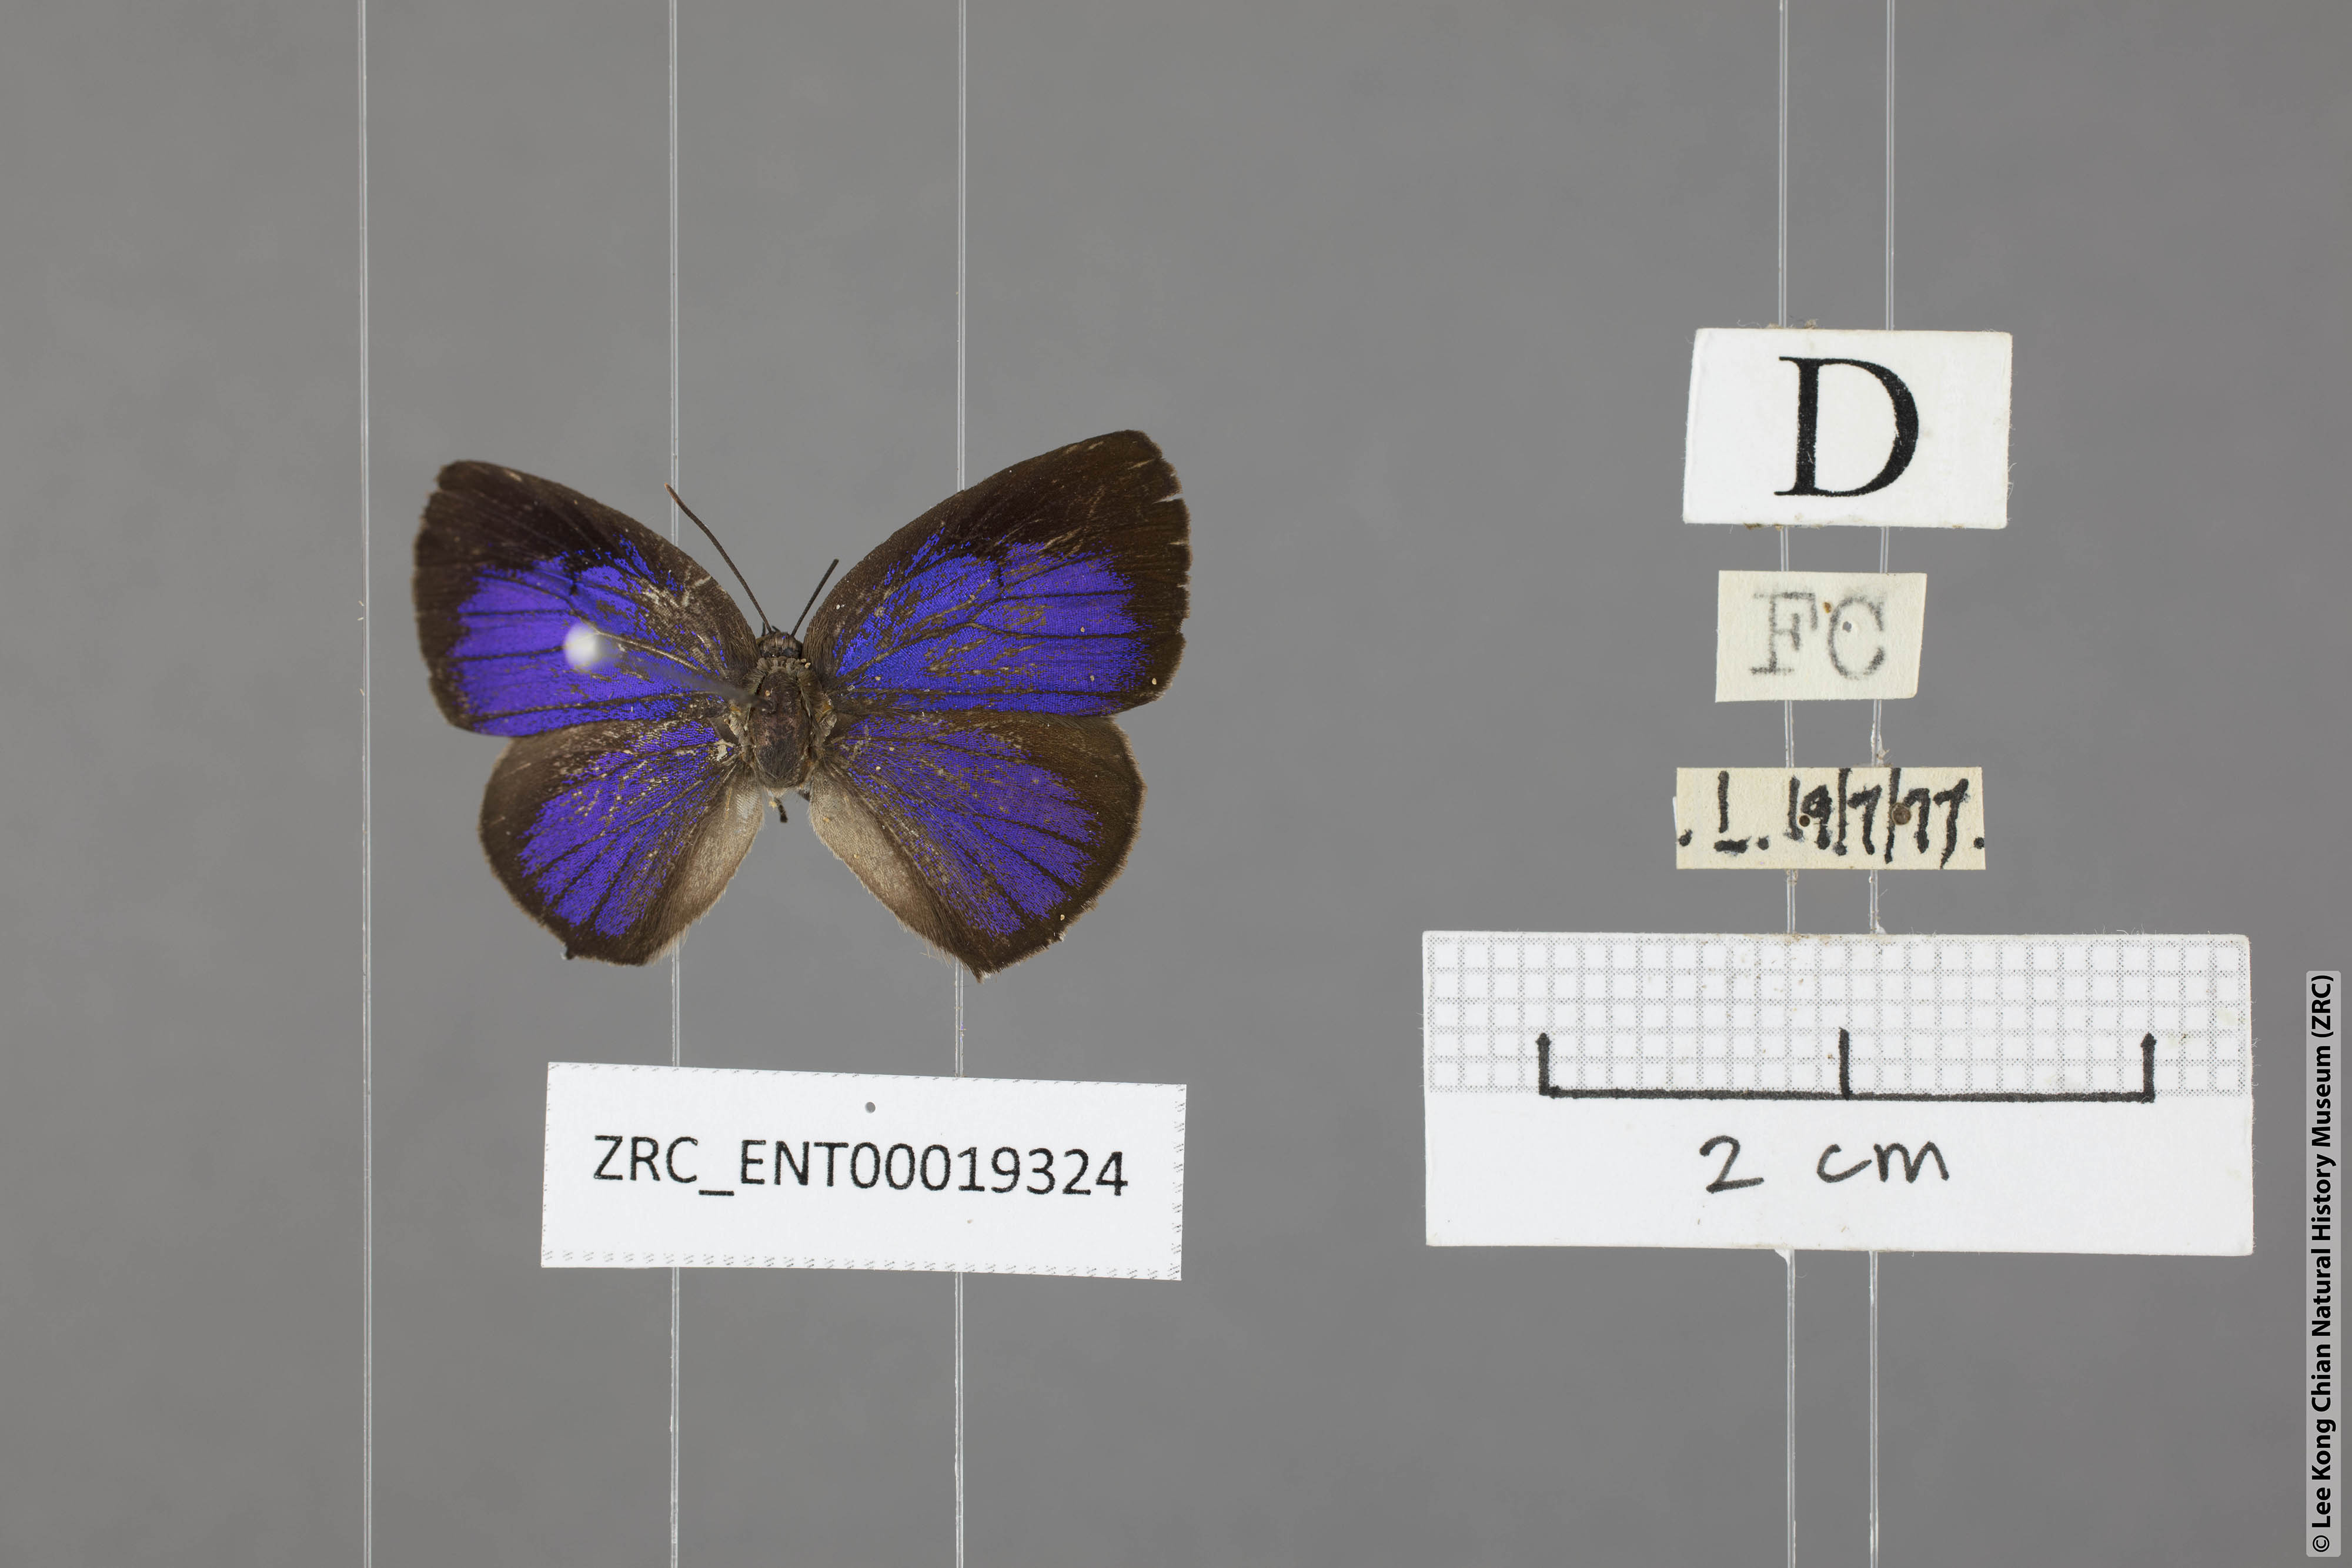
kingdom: Animalia
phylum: Arthropoda
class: Insecta
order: Lepidoptera
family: Lycaenidae
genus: Arhopala
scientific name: Arhopala buddha
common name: Buddha oakblue
